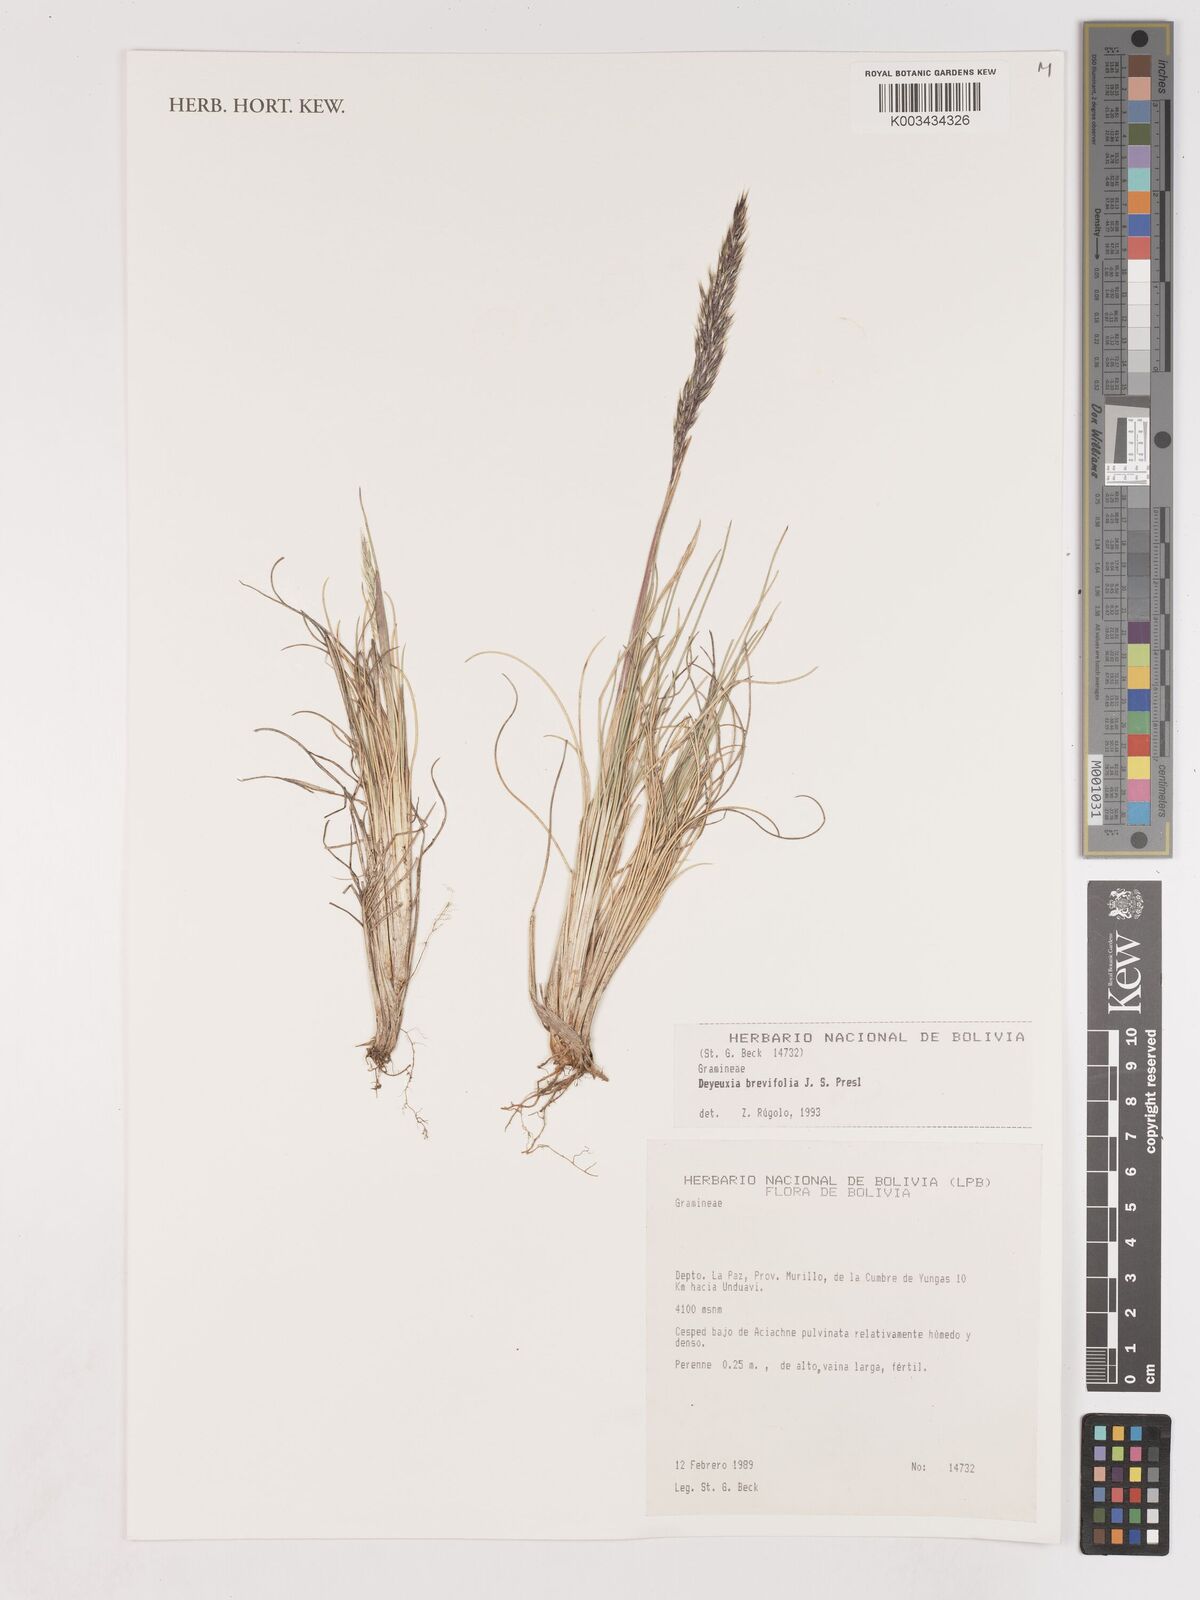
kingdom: Plantae
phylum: Tracheophyta
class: Liliopsida
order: Poales
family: Poaceae
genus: Cinnagrostis
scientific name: Cinnagrostis brevifolia
